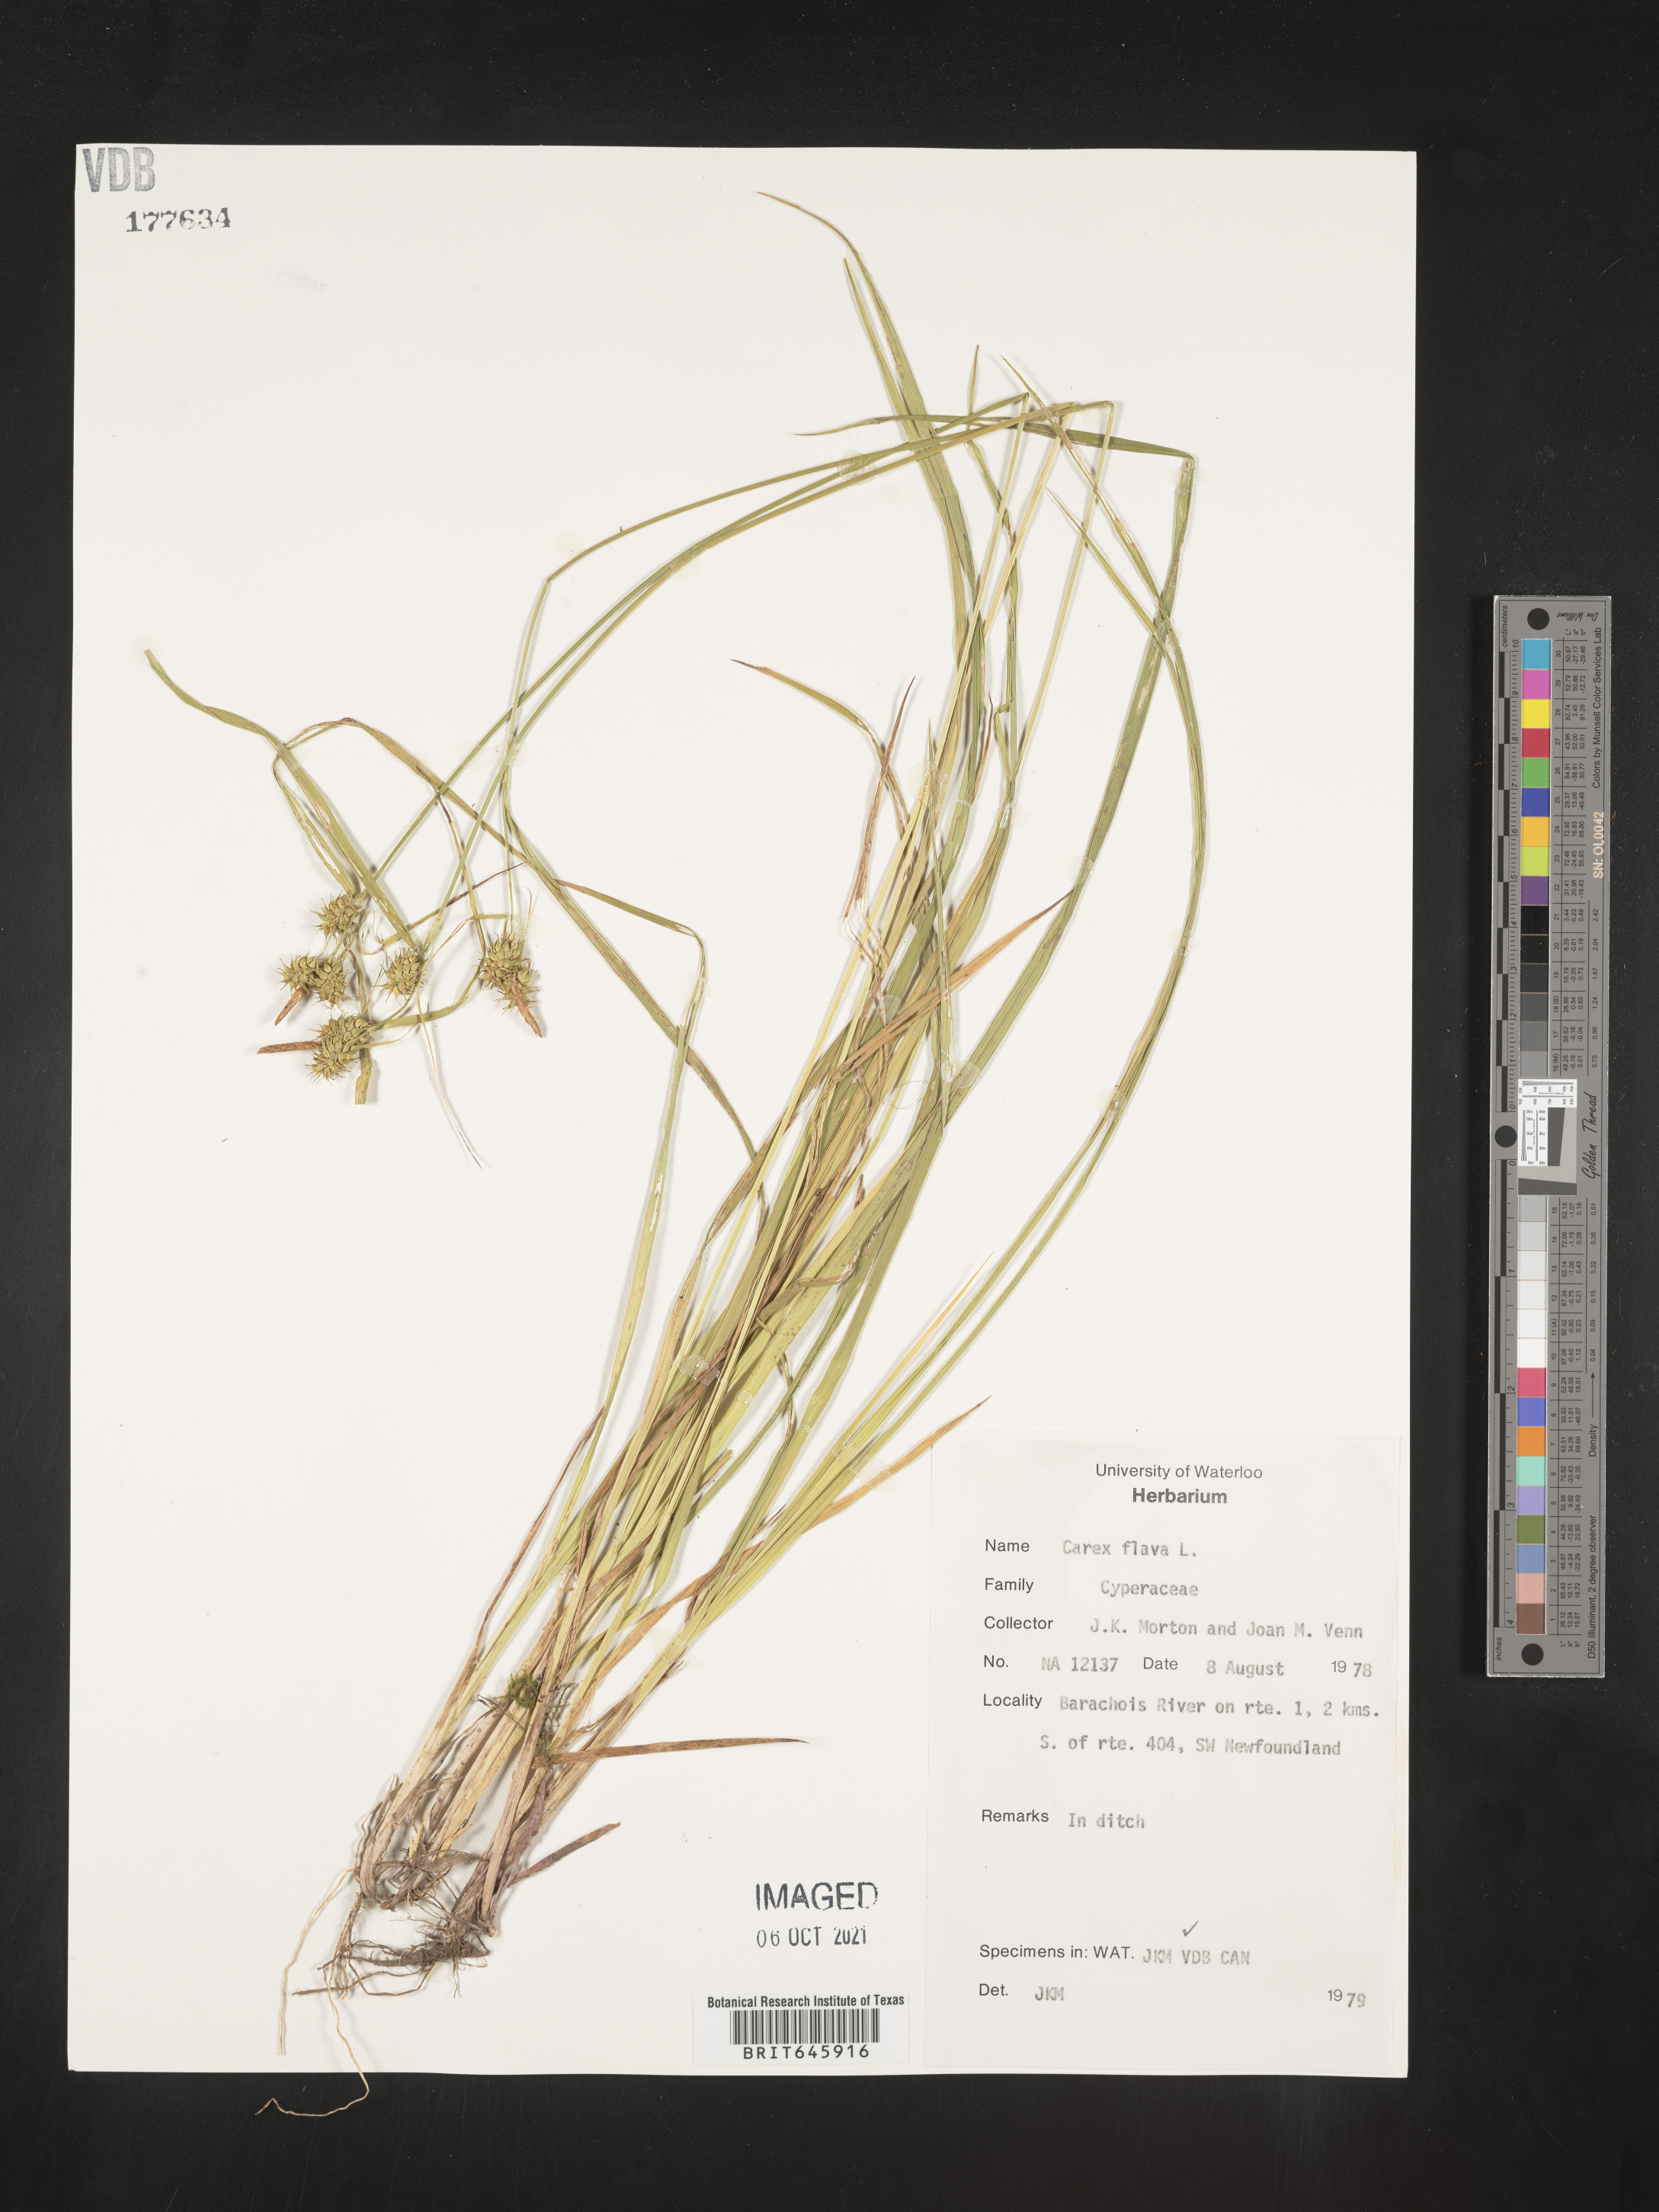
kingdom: Plantae
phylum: Tracheophyta
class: Liliopsida
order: Poales
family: Cyperaceae
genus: Carex
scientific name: Carex flava
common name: Large yellow-sedge
